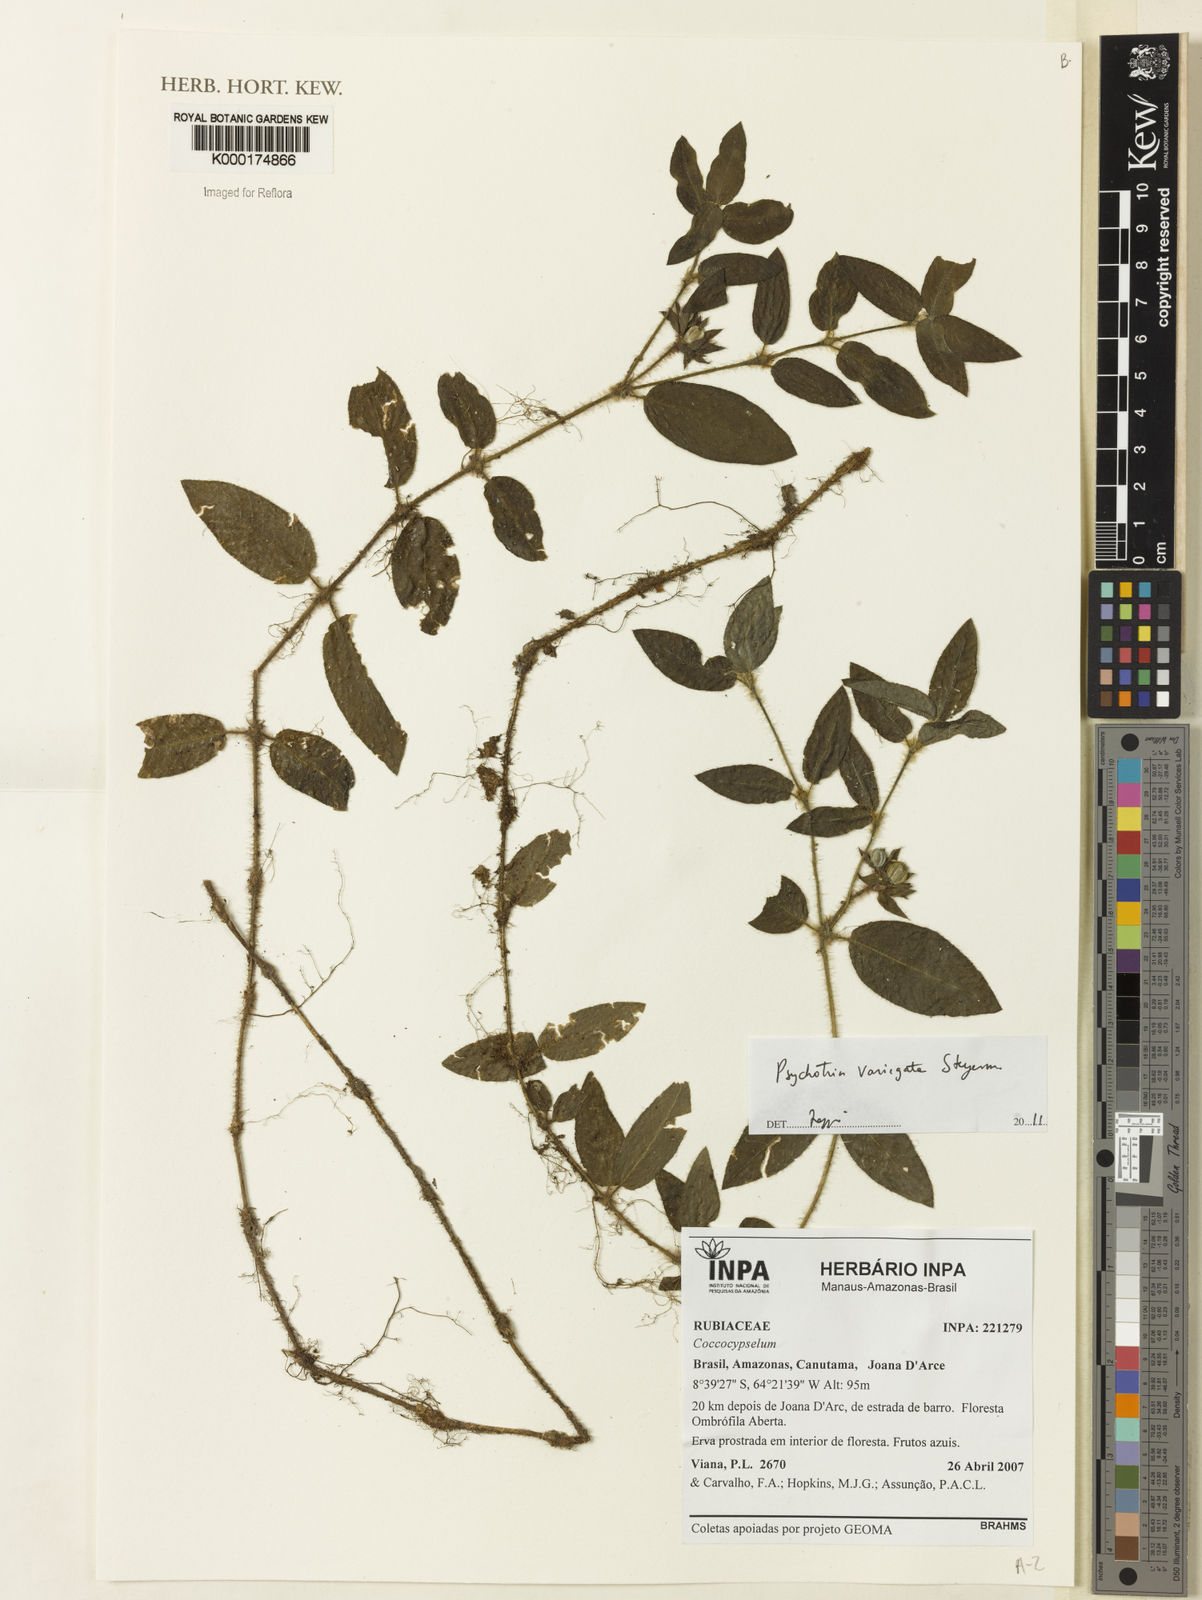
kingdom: Plantae
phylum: Tracheophyta
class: Magnoliopsida
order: Gentianales
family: Rubiaceae
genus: Palicourea
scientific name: Palicourea debilis
